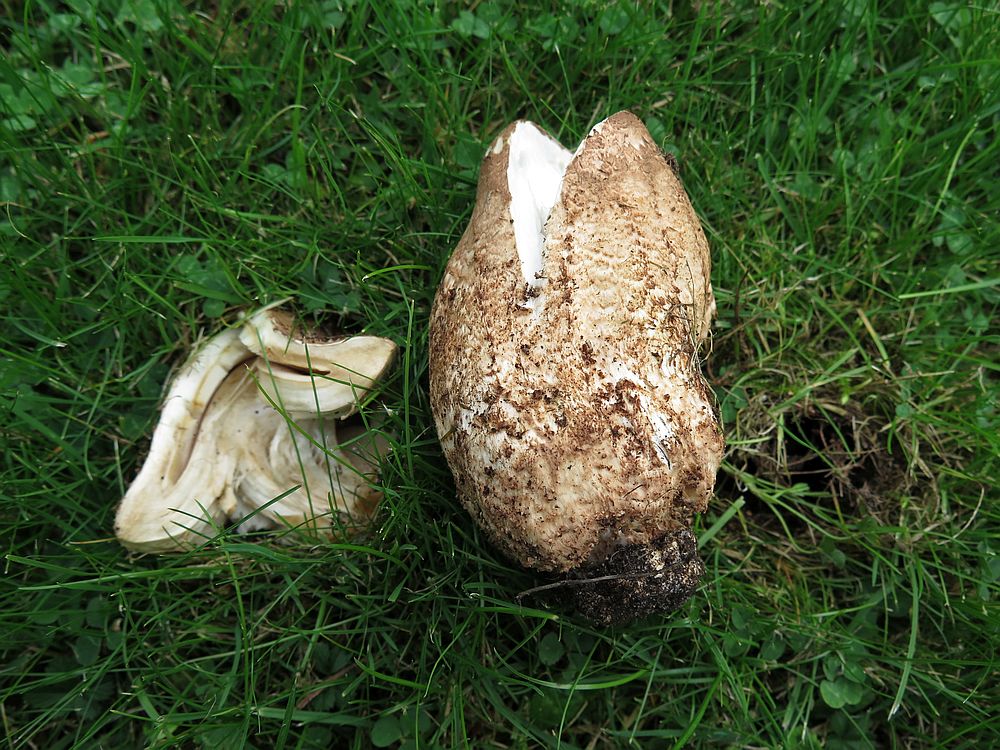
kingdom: Fungi
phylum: Basidiomycota
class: Agaricomycetes
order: Agaricales
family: Tricholomataceae
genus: Tricholoma
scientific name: Tricholoma vaccinum
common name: ko-ridderhat
